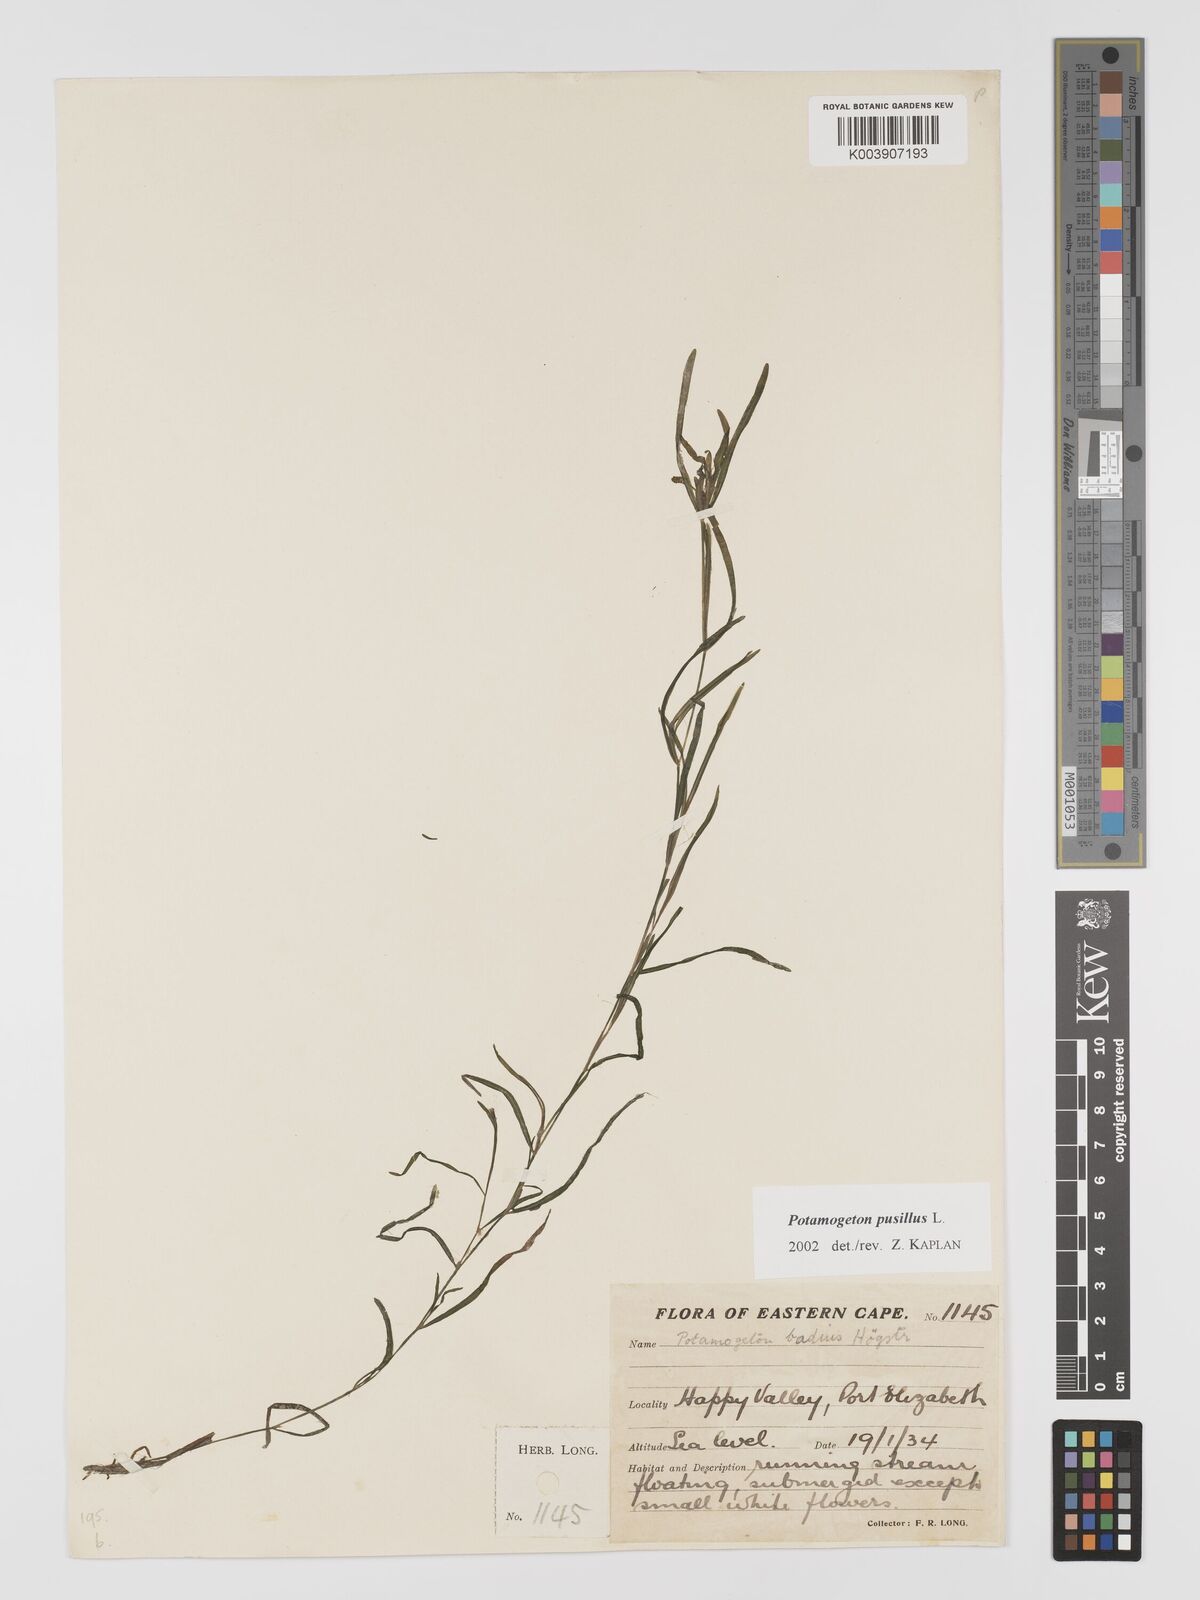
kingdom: Plantae
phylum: Tracheophyta
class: Liliopsida
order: Alismatales
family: Potamogetonaceae
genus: Potamogeton
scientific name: Potamogeton pusillus
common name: Lesser pondweed
